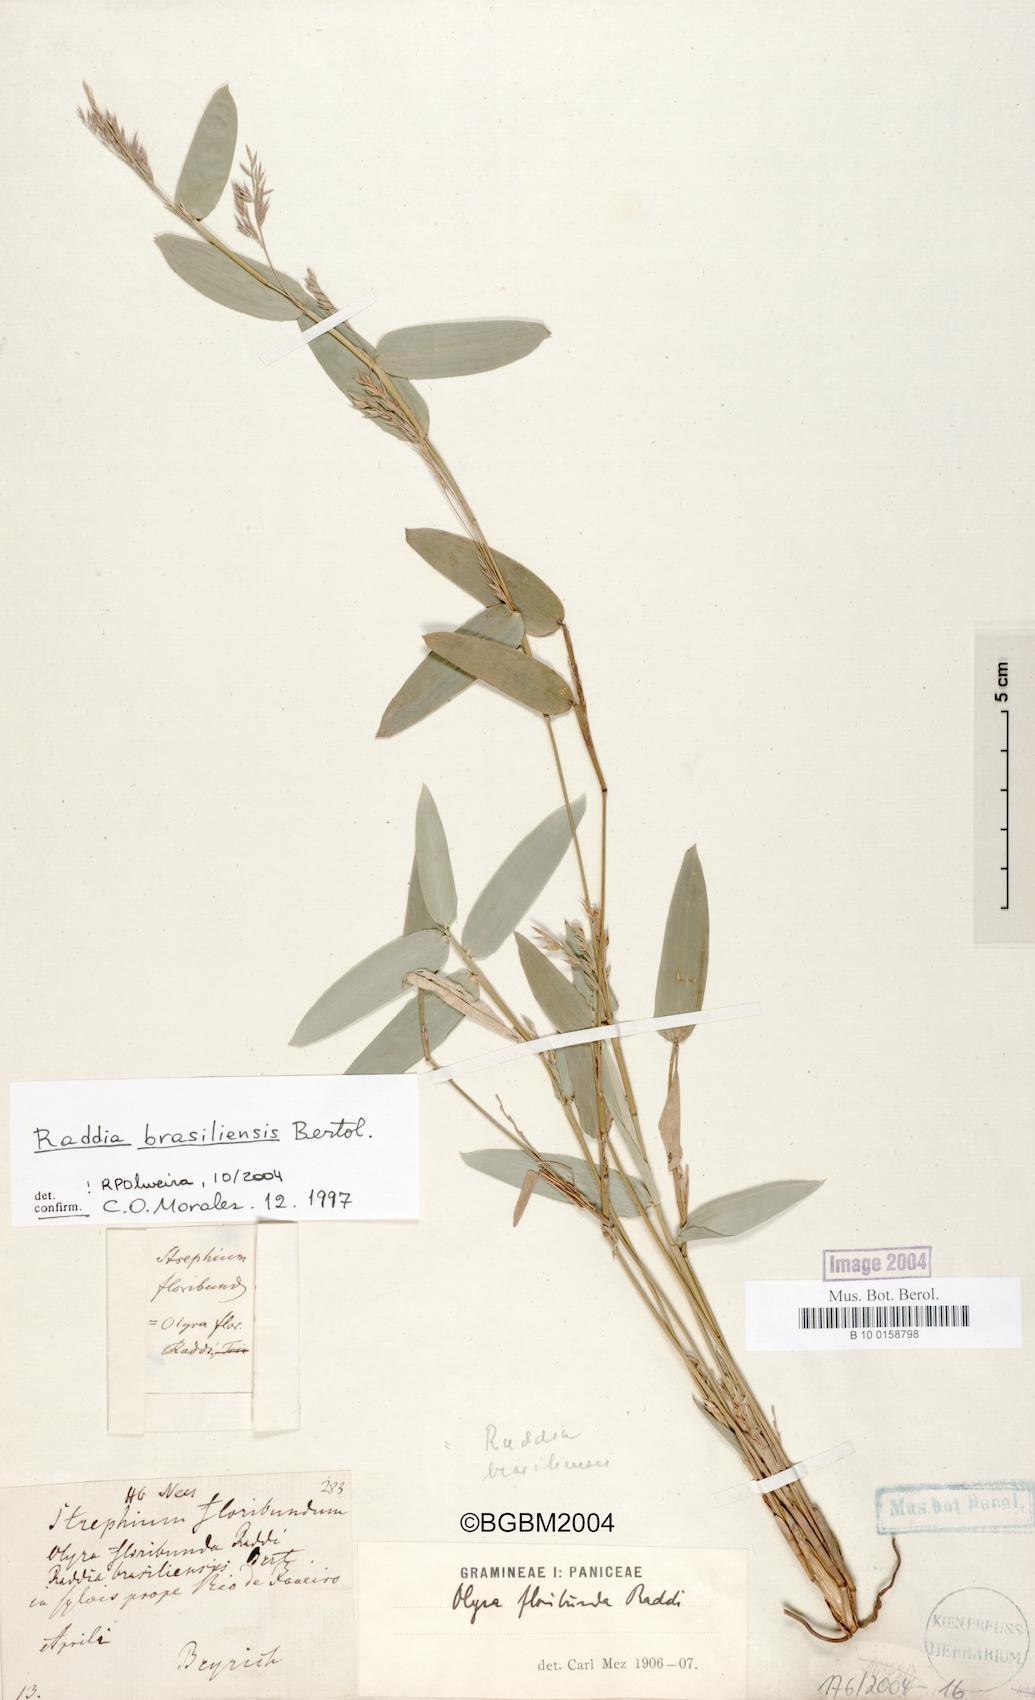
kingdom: Plantae
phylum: Tracheophyta
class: Liliopsida
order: Poales
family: Poaceae
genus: Raddia
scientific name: Raddia brasiliensis
